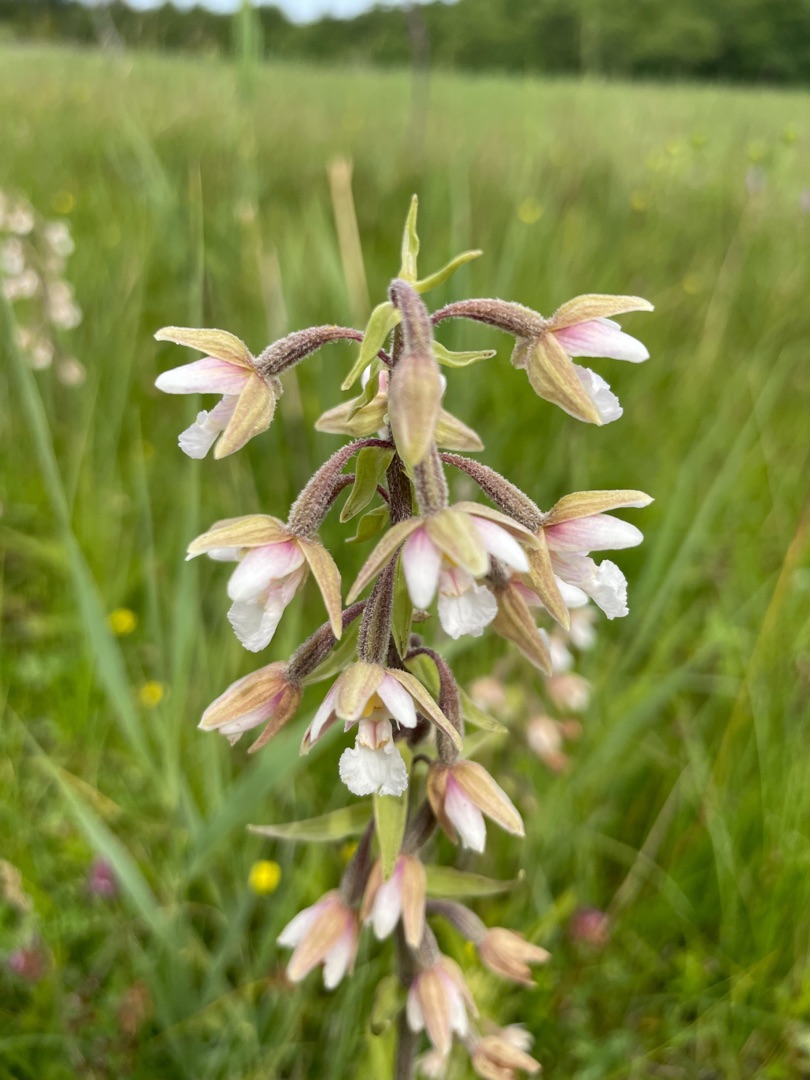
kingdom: Plantae
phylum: Tracheophyta
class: Liliopsida
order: Asparagales
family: Orchidaceae
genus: Epipactis
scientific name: Epipactis palustris
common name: Sump-hullæbe
